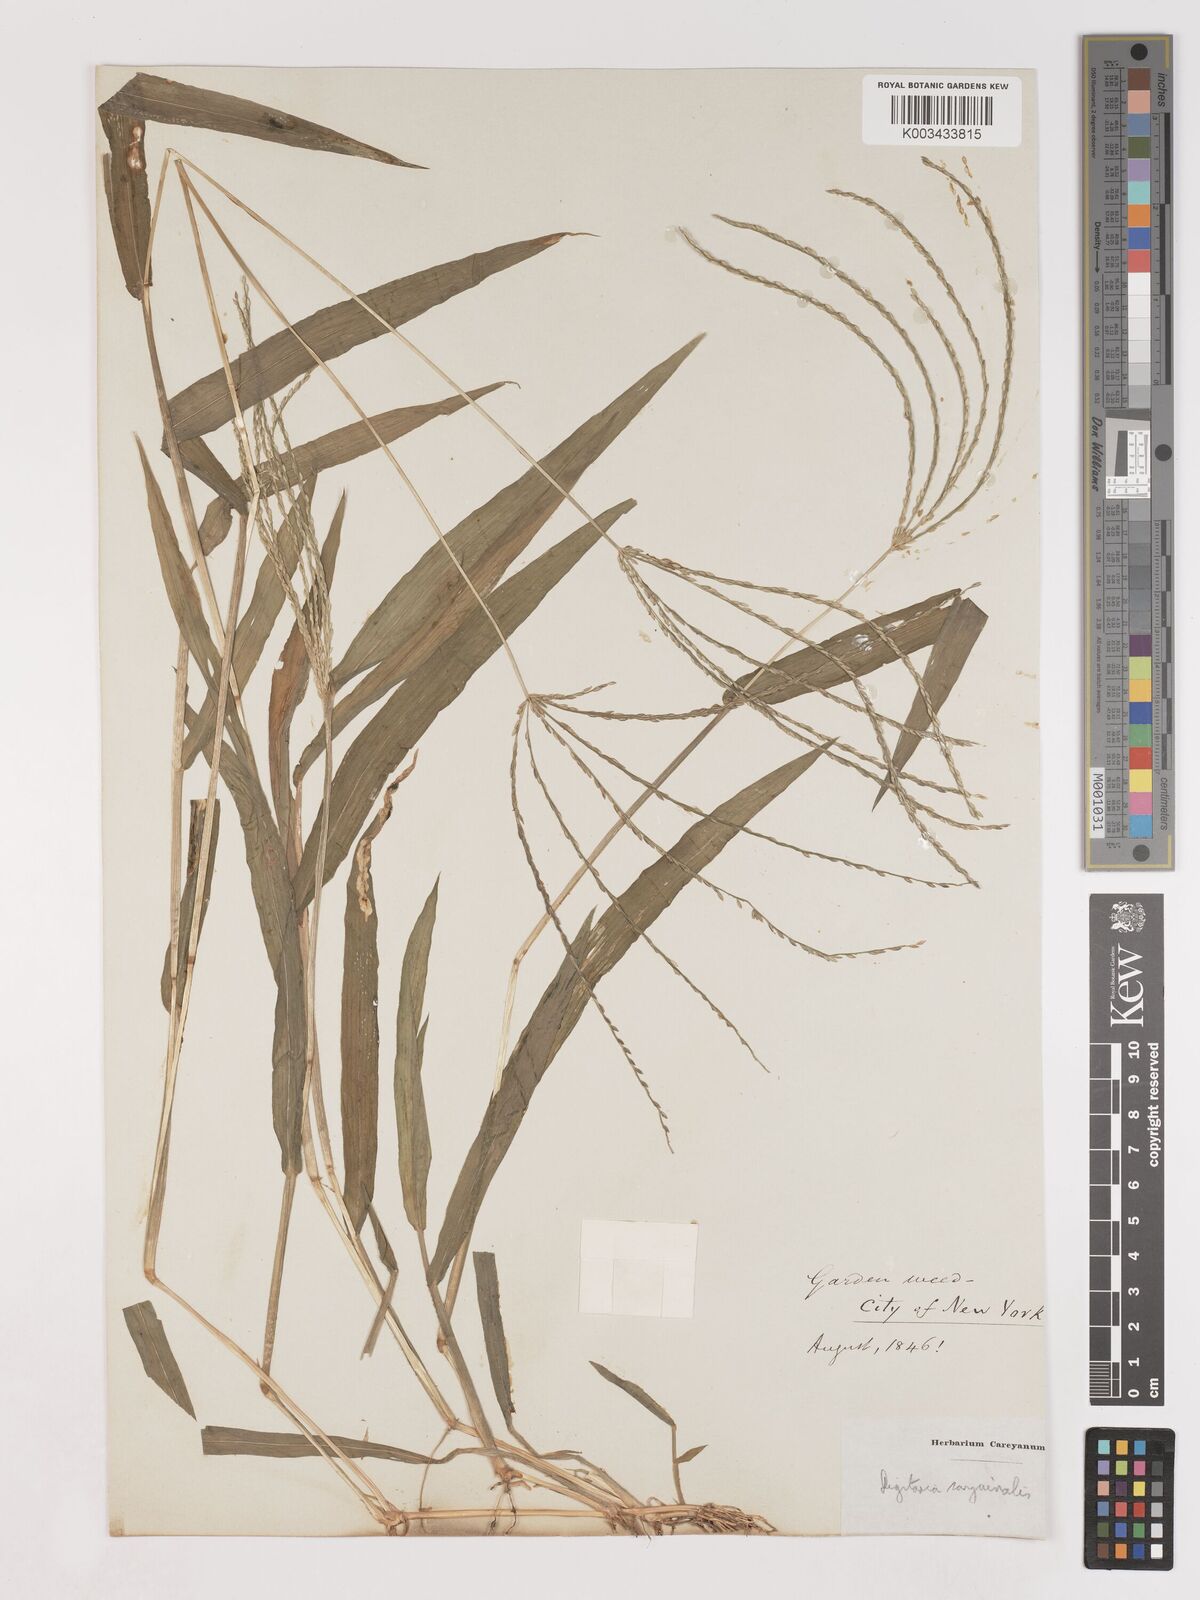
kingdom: Plantae
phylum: Tracheophyta
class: Liliopsida
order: Poales
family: Poaceae
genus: Digitaria
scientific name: Digitaria sanguinalis
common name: Hairy crabgrass
